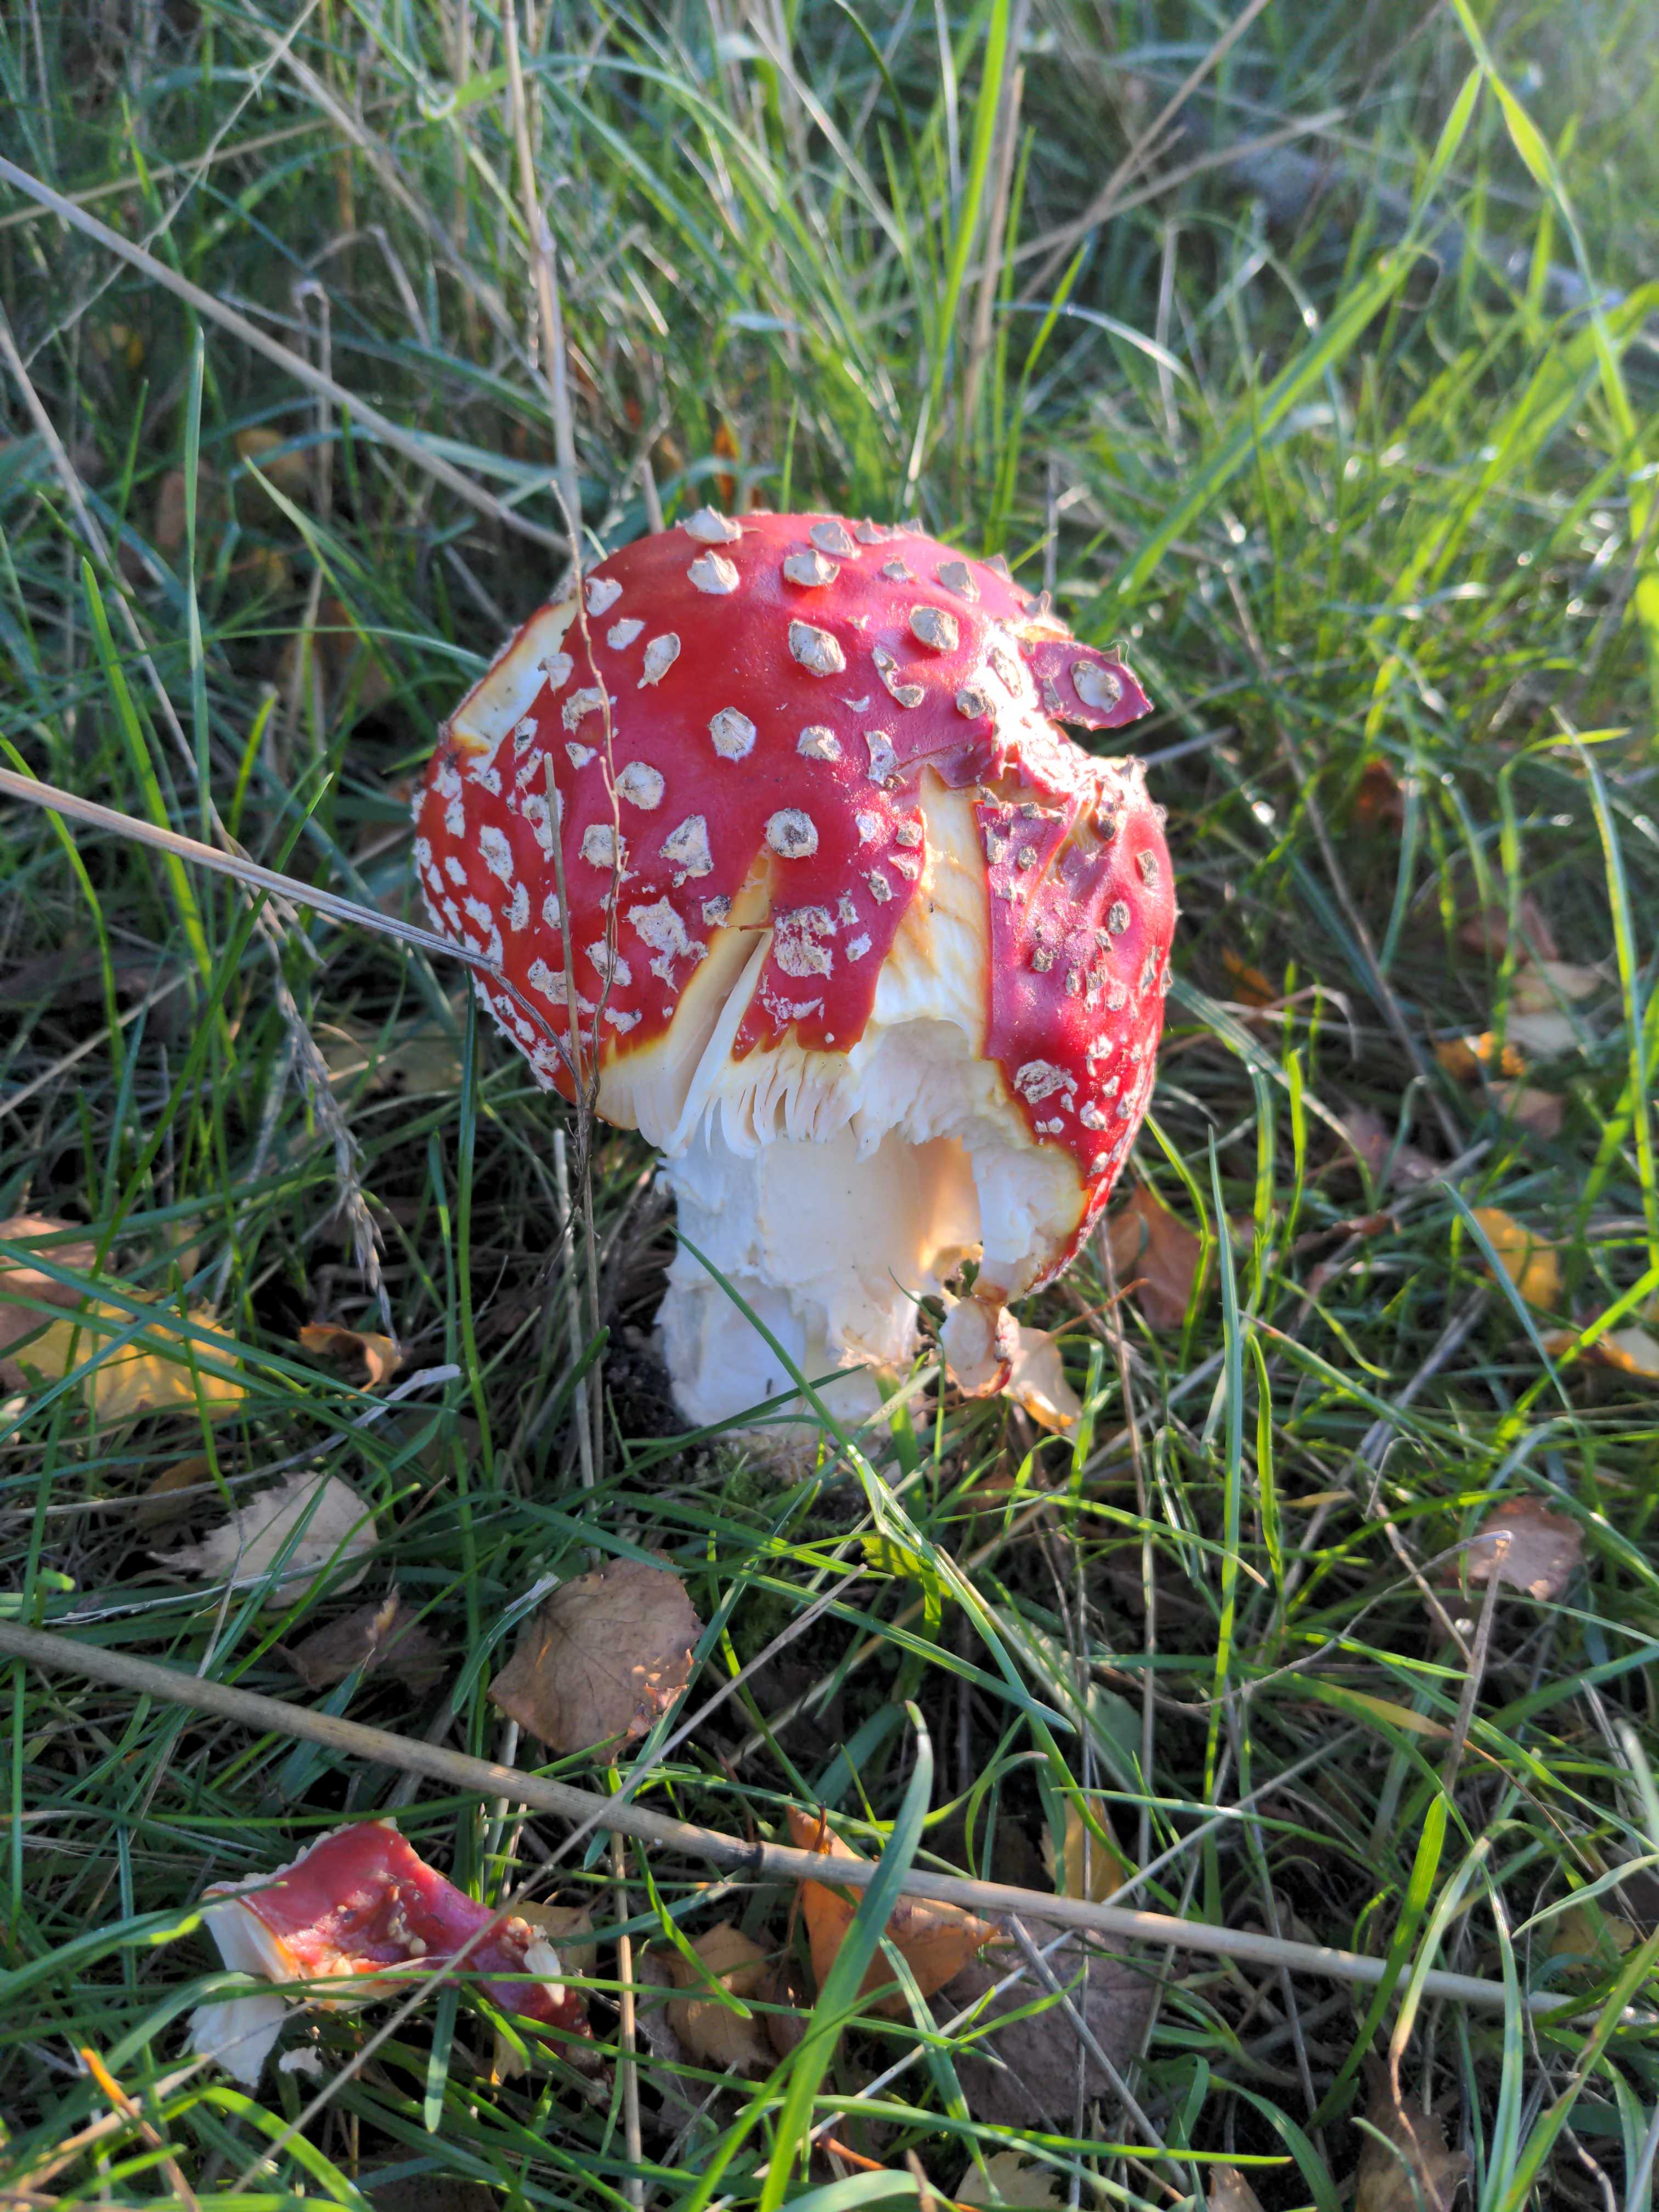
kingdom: Fungi
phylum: Basidiomycota
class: Agaricomycetes
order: Agaricales
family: Amanitaceae
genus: Amanita
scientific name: Amanita muscaria
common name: rød fluesvamp
